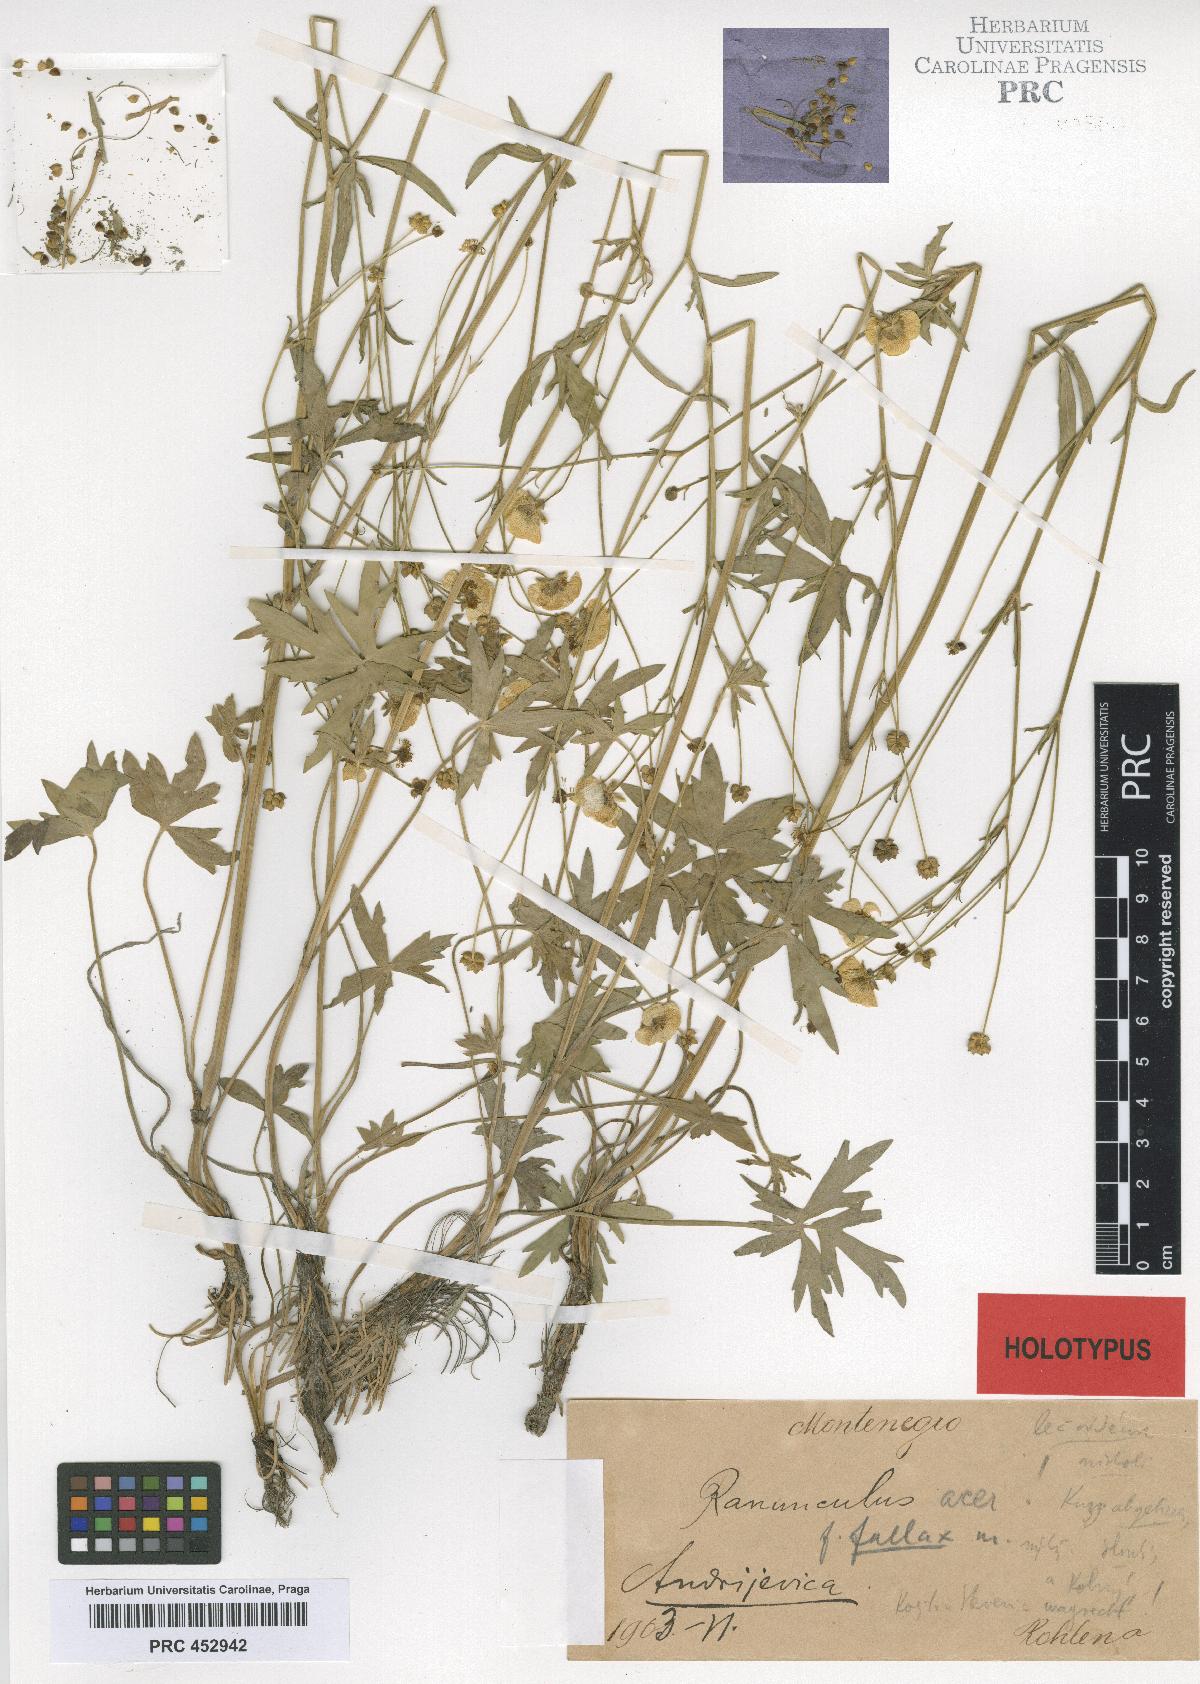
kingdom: Plantae
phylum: Tracheophyta
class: Magnoliopsida
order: Ranunculales
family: Ranunculaceae
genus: Ranunculus
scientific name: Ranunculus acris
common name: Meadow buttercup
